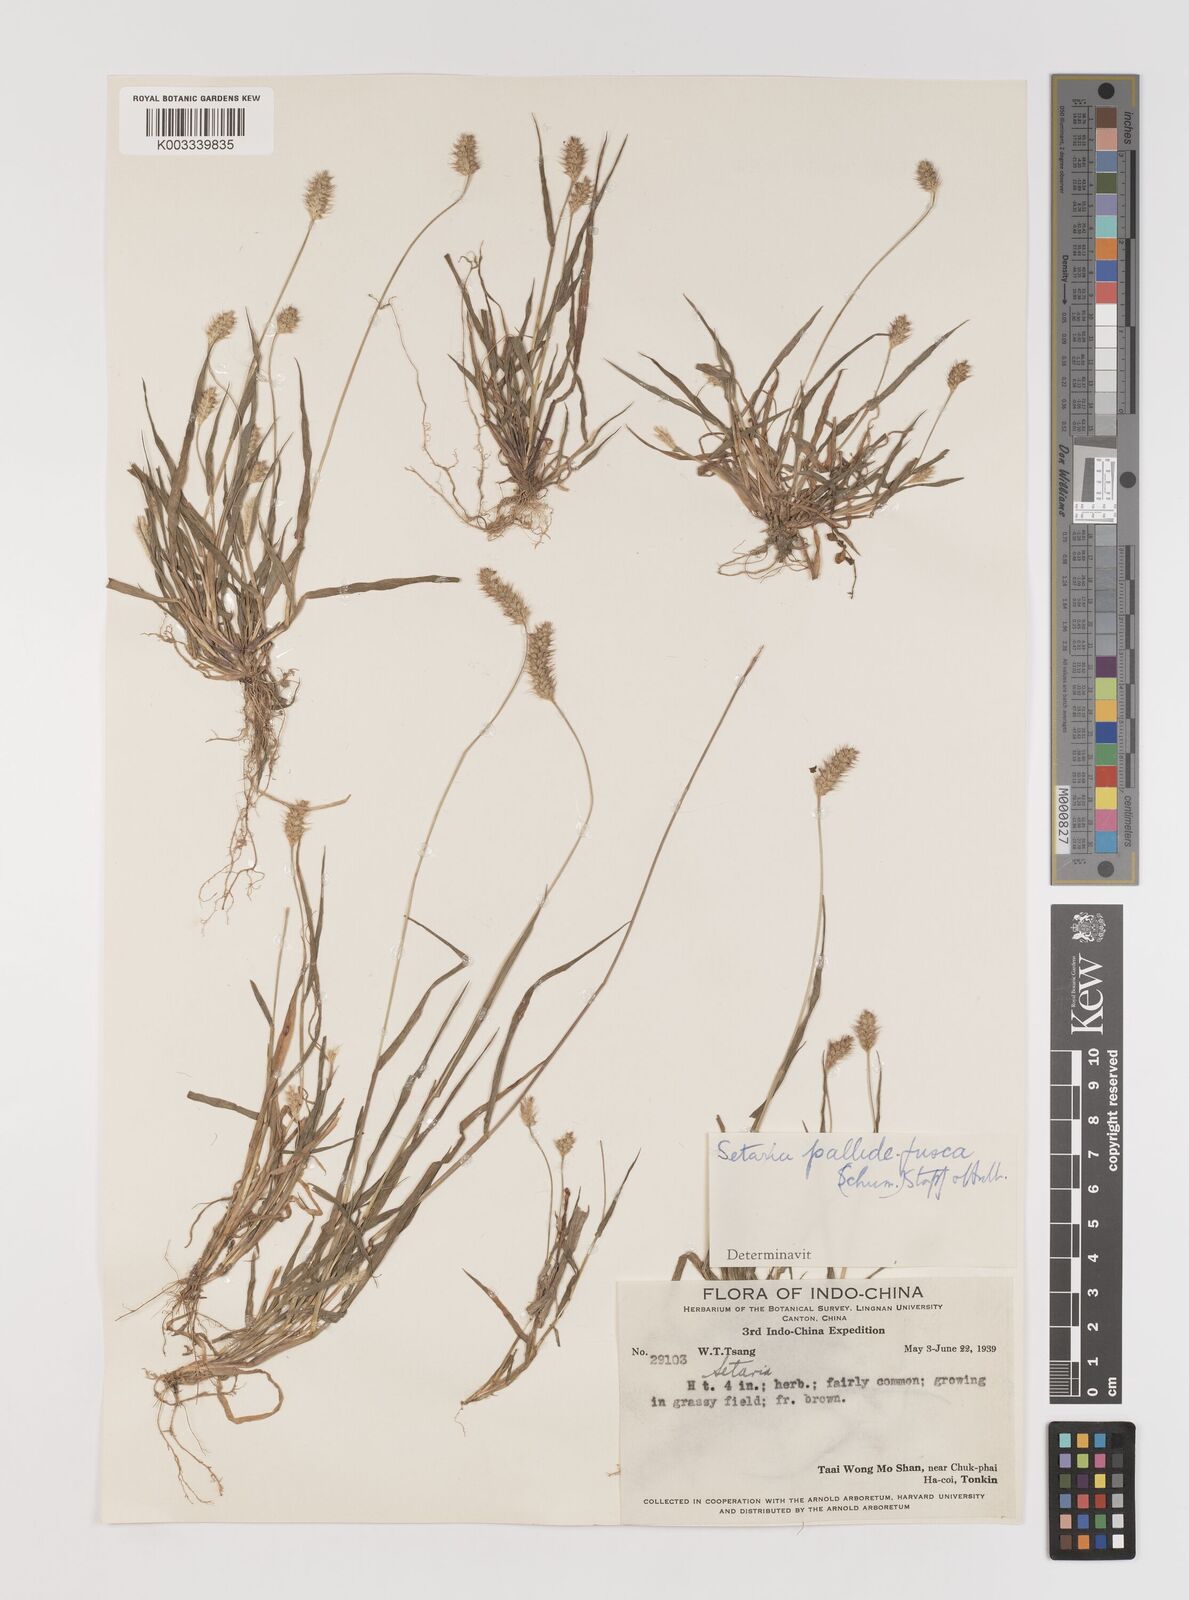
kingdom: Plantae
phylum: Tracheophyta
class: Liliopsida
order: Poales
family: Poaceae
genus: Setaria
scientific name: Setaria pumila
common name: Yellow bristle-grass
